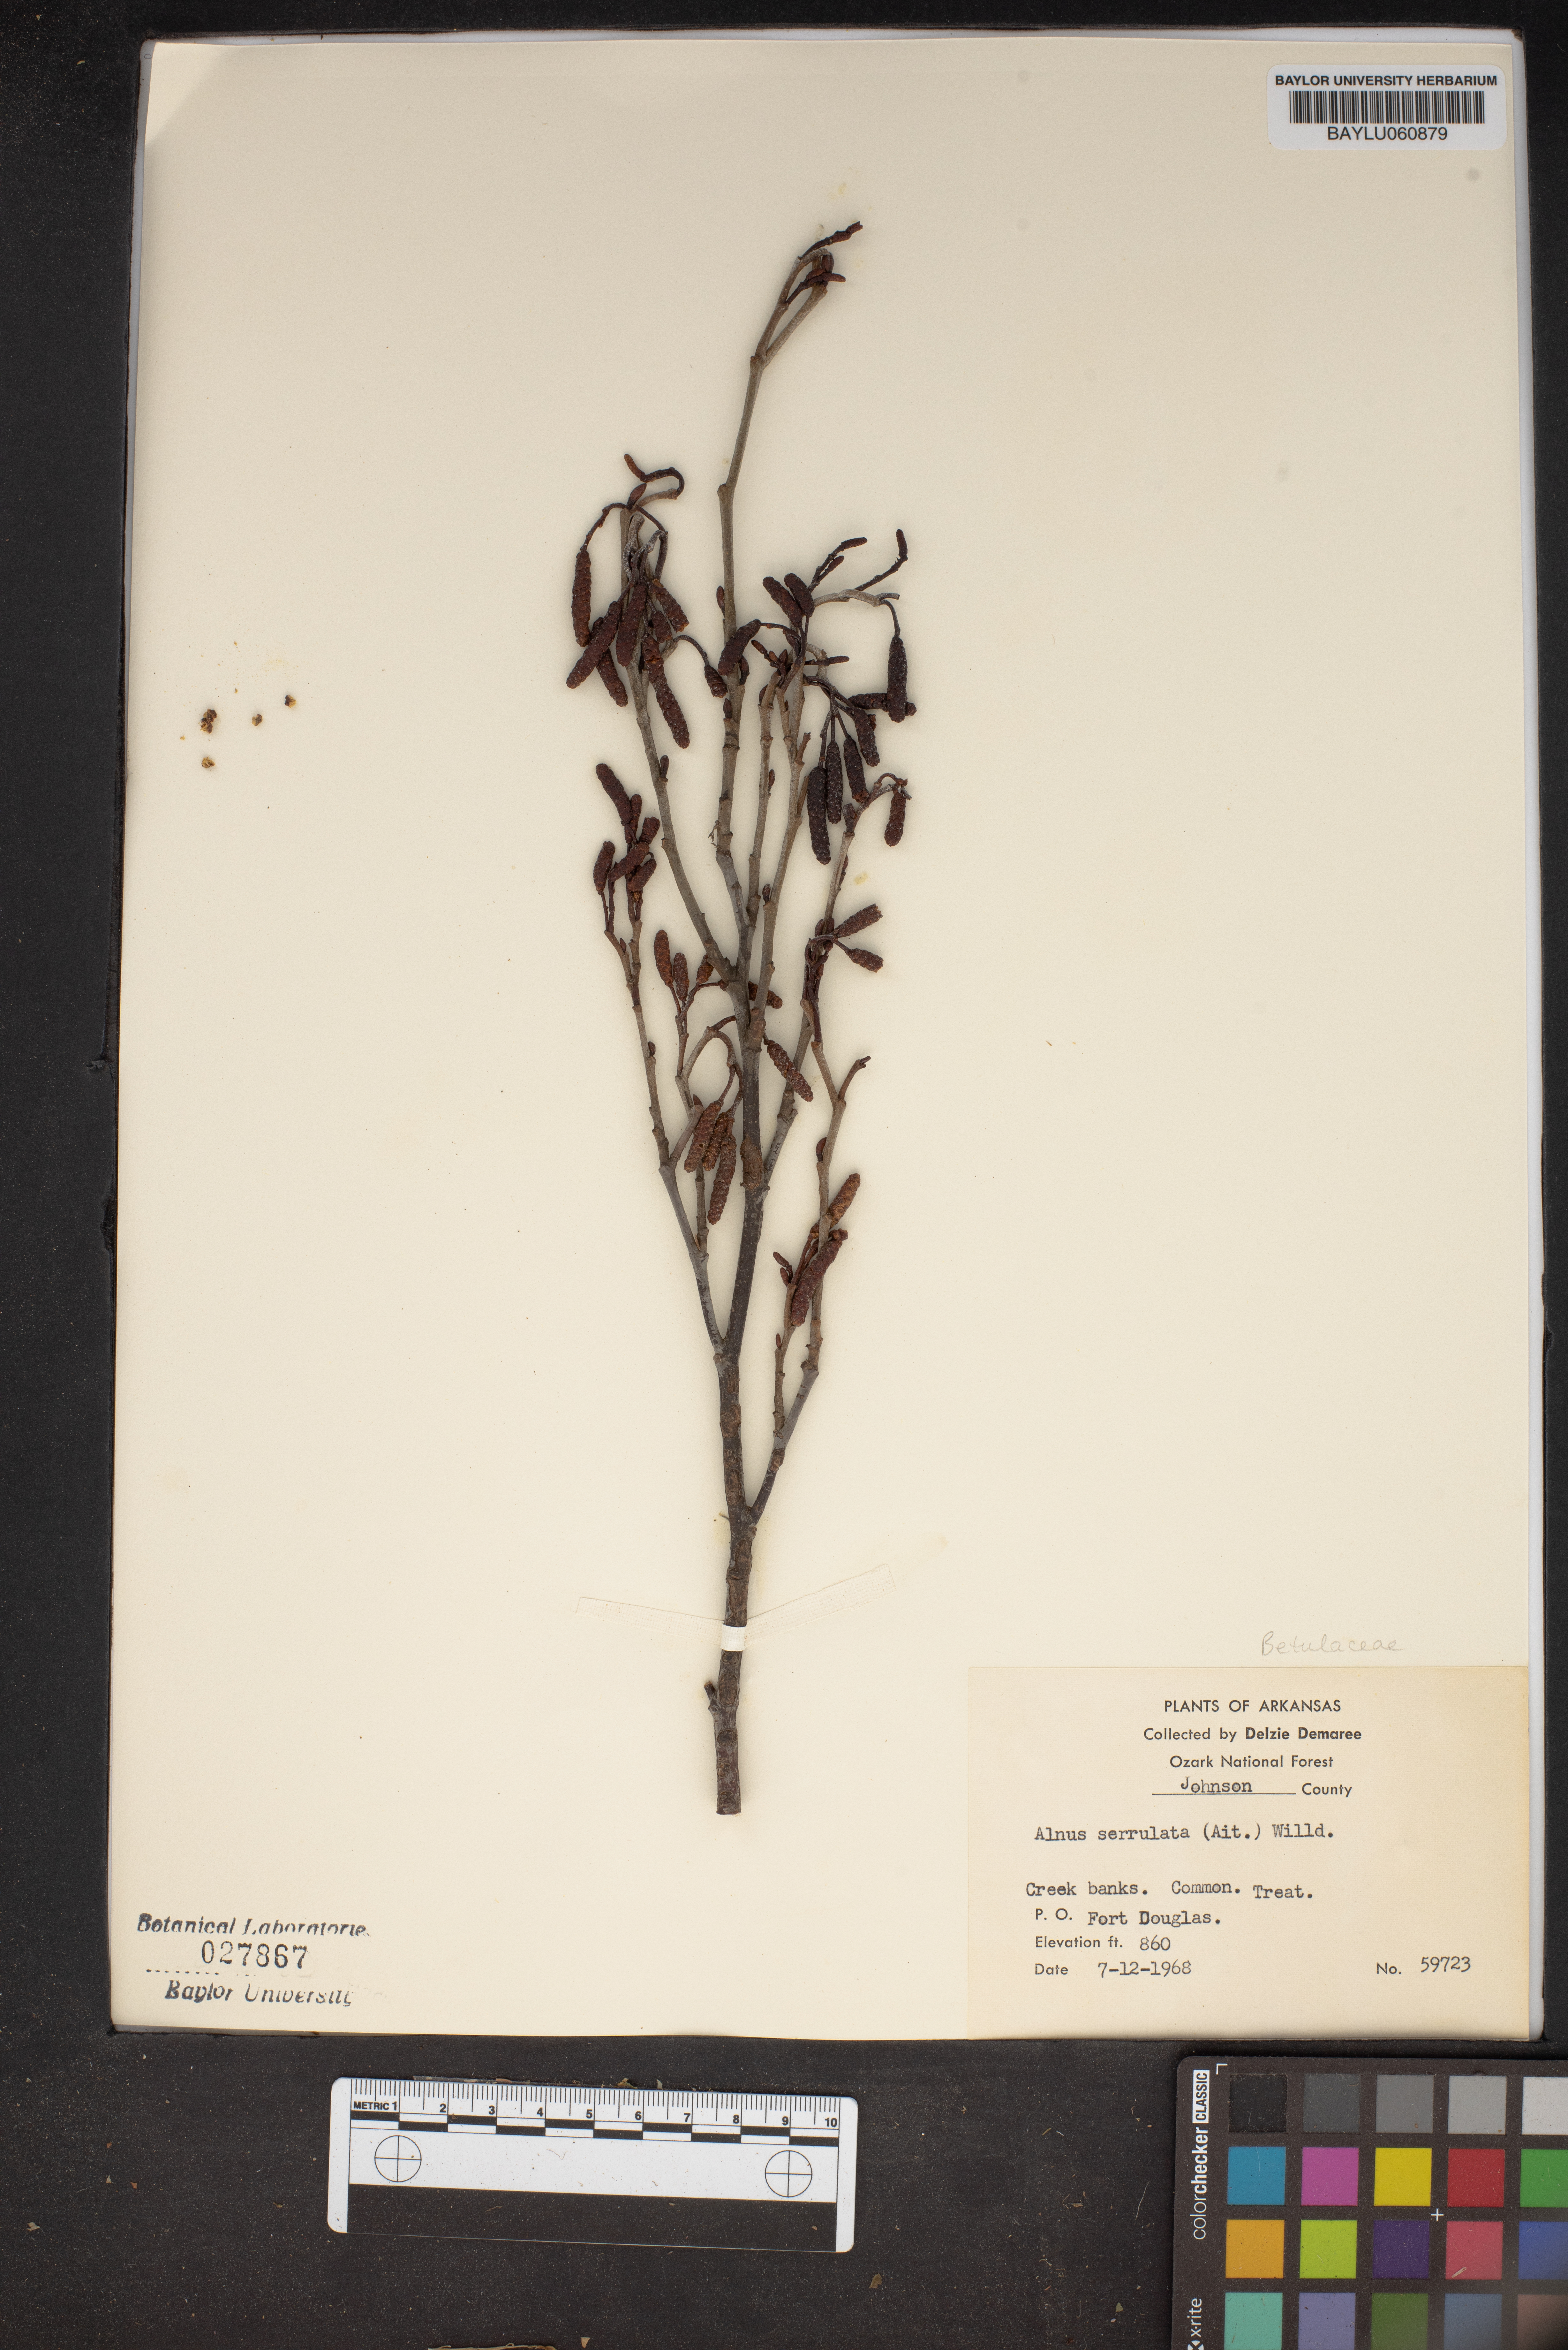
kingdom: Plantae
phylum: Tracheophyta
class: Magnoliopsida
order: Fagales
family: Betulaceae
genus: Alnus
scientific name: Alnus serrulata
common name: Hazel alder
